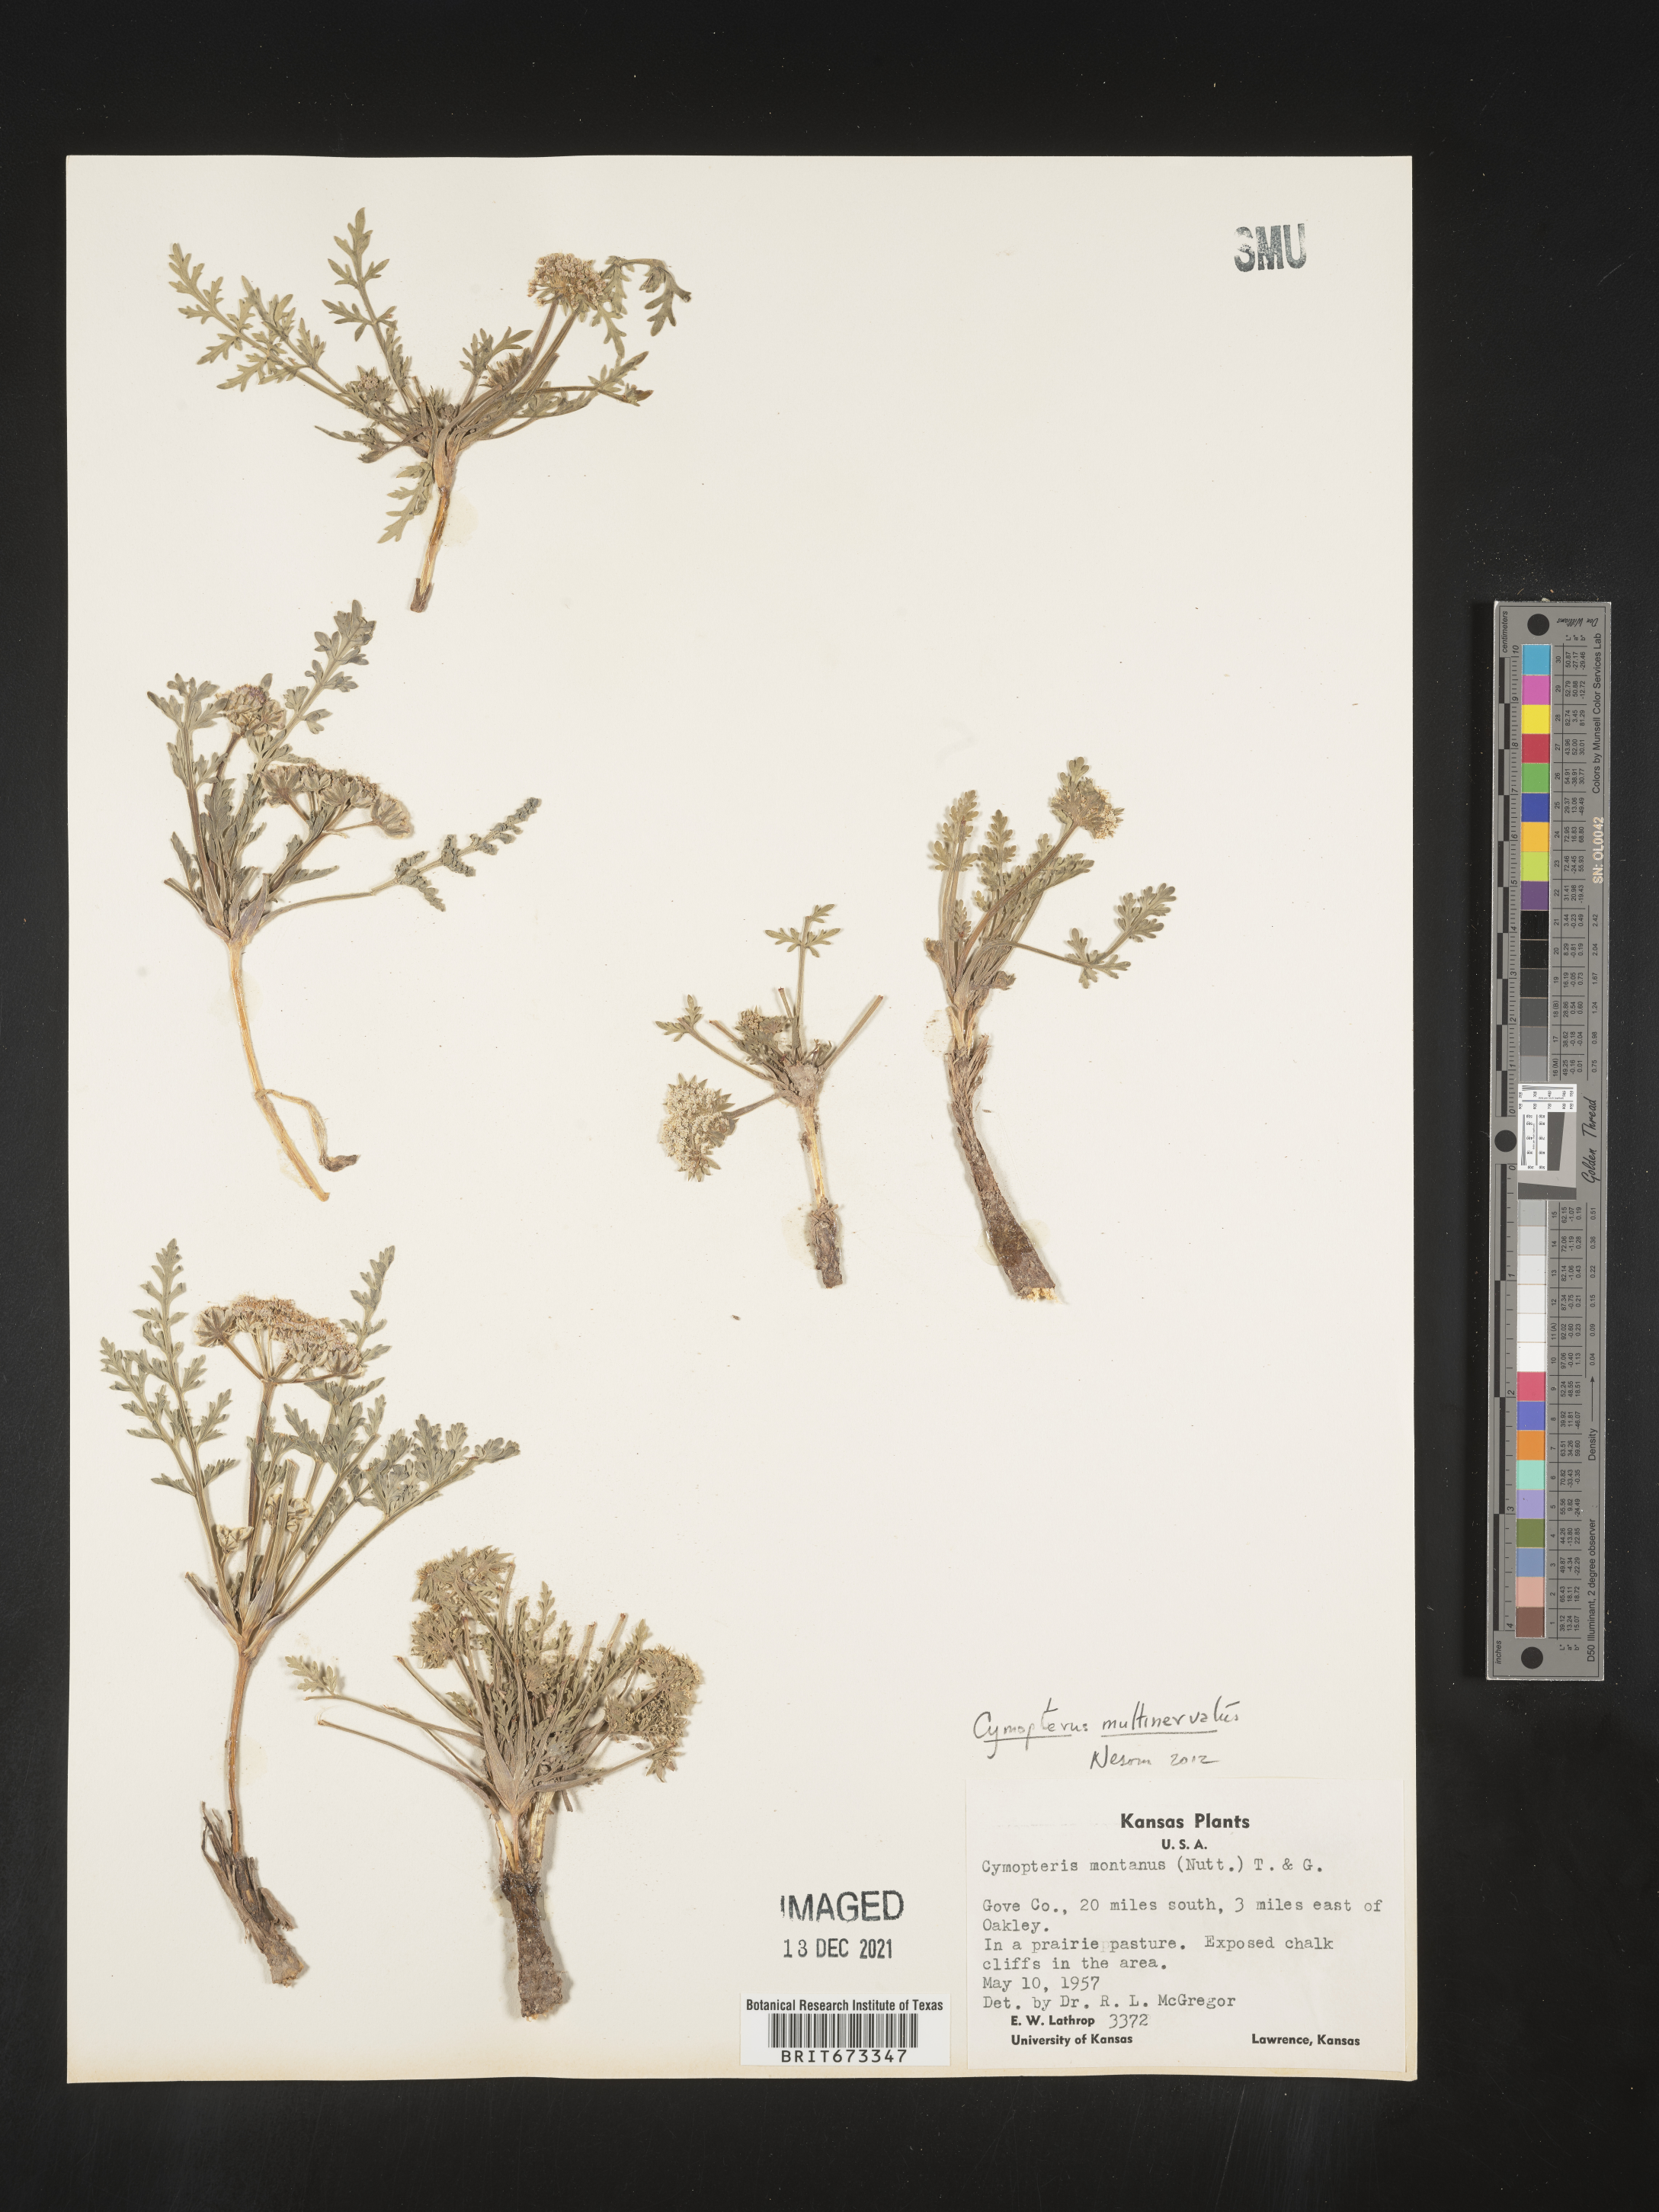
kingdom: Plantae
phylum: Tracheophyta
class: Magnoliopsida
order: Apiales
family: Apiaceae
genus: Vesper
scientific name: Vesper multinervatus
